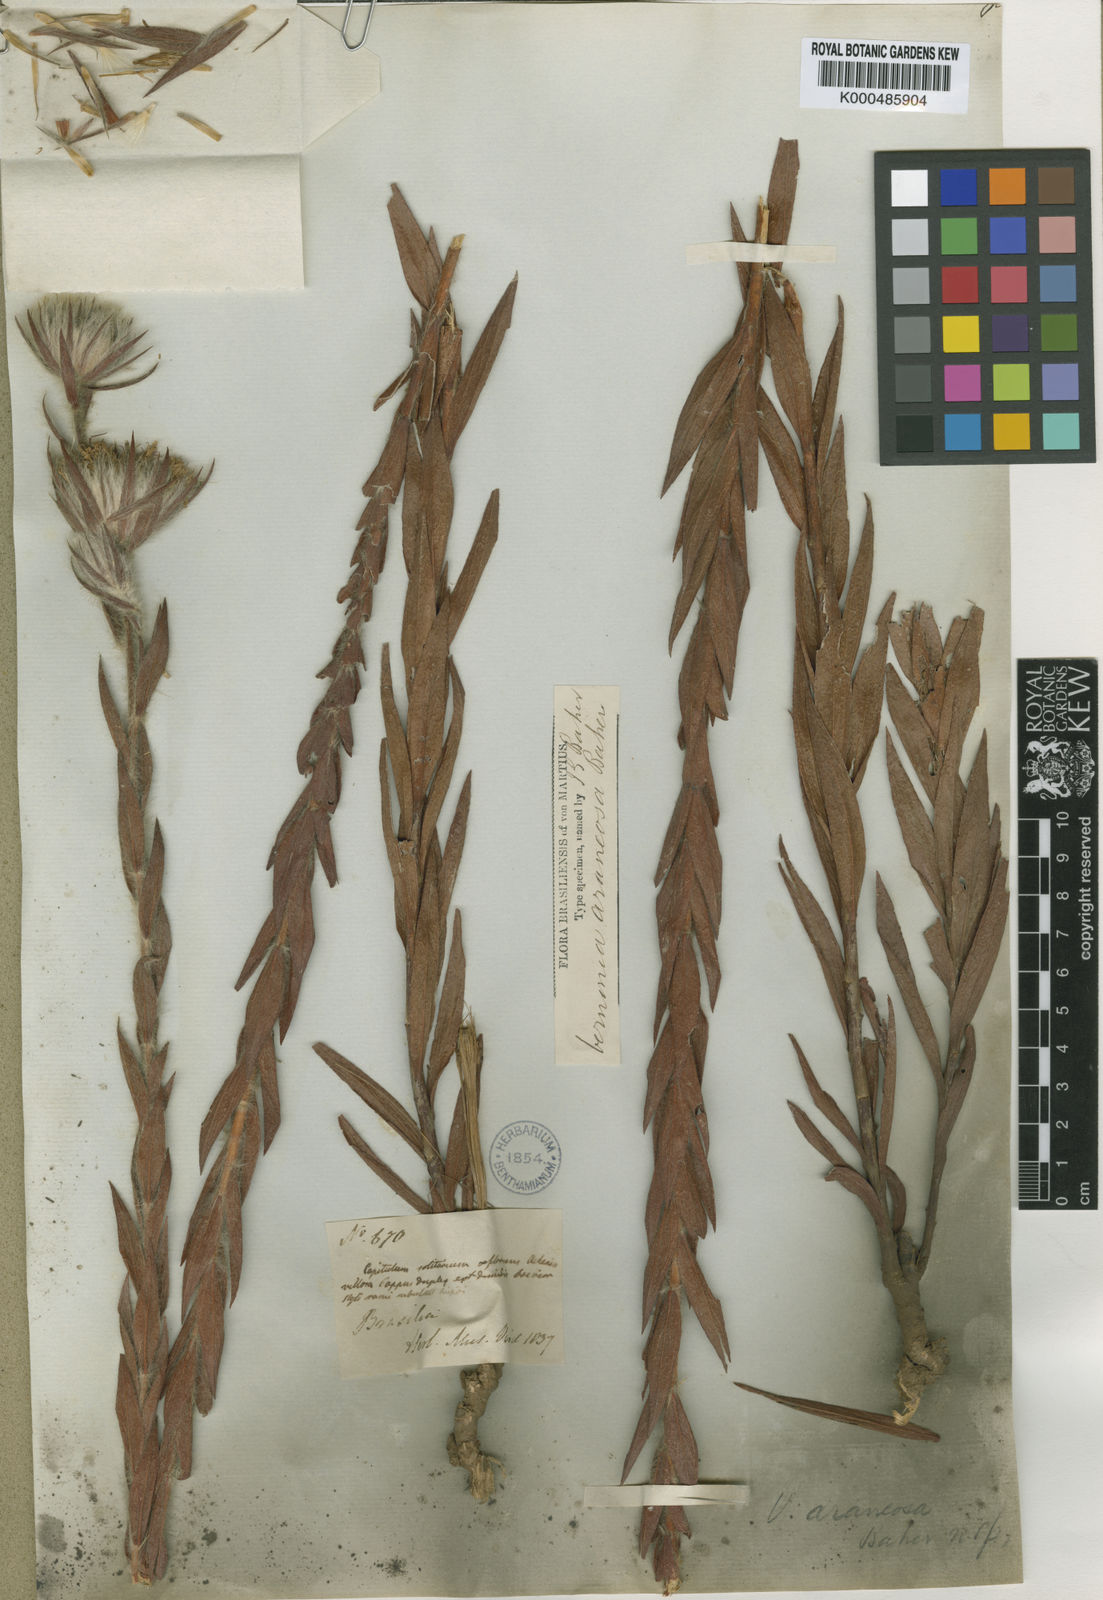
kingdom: Plantae
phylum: Tracheophyta
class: Magnoliopsida
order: Asterales
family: Asteraceae
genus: Lessingianthus
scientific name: Lessingianthus araneosus
